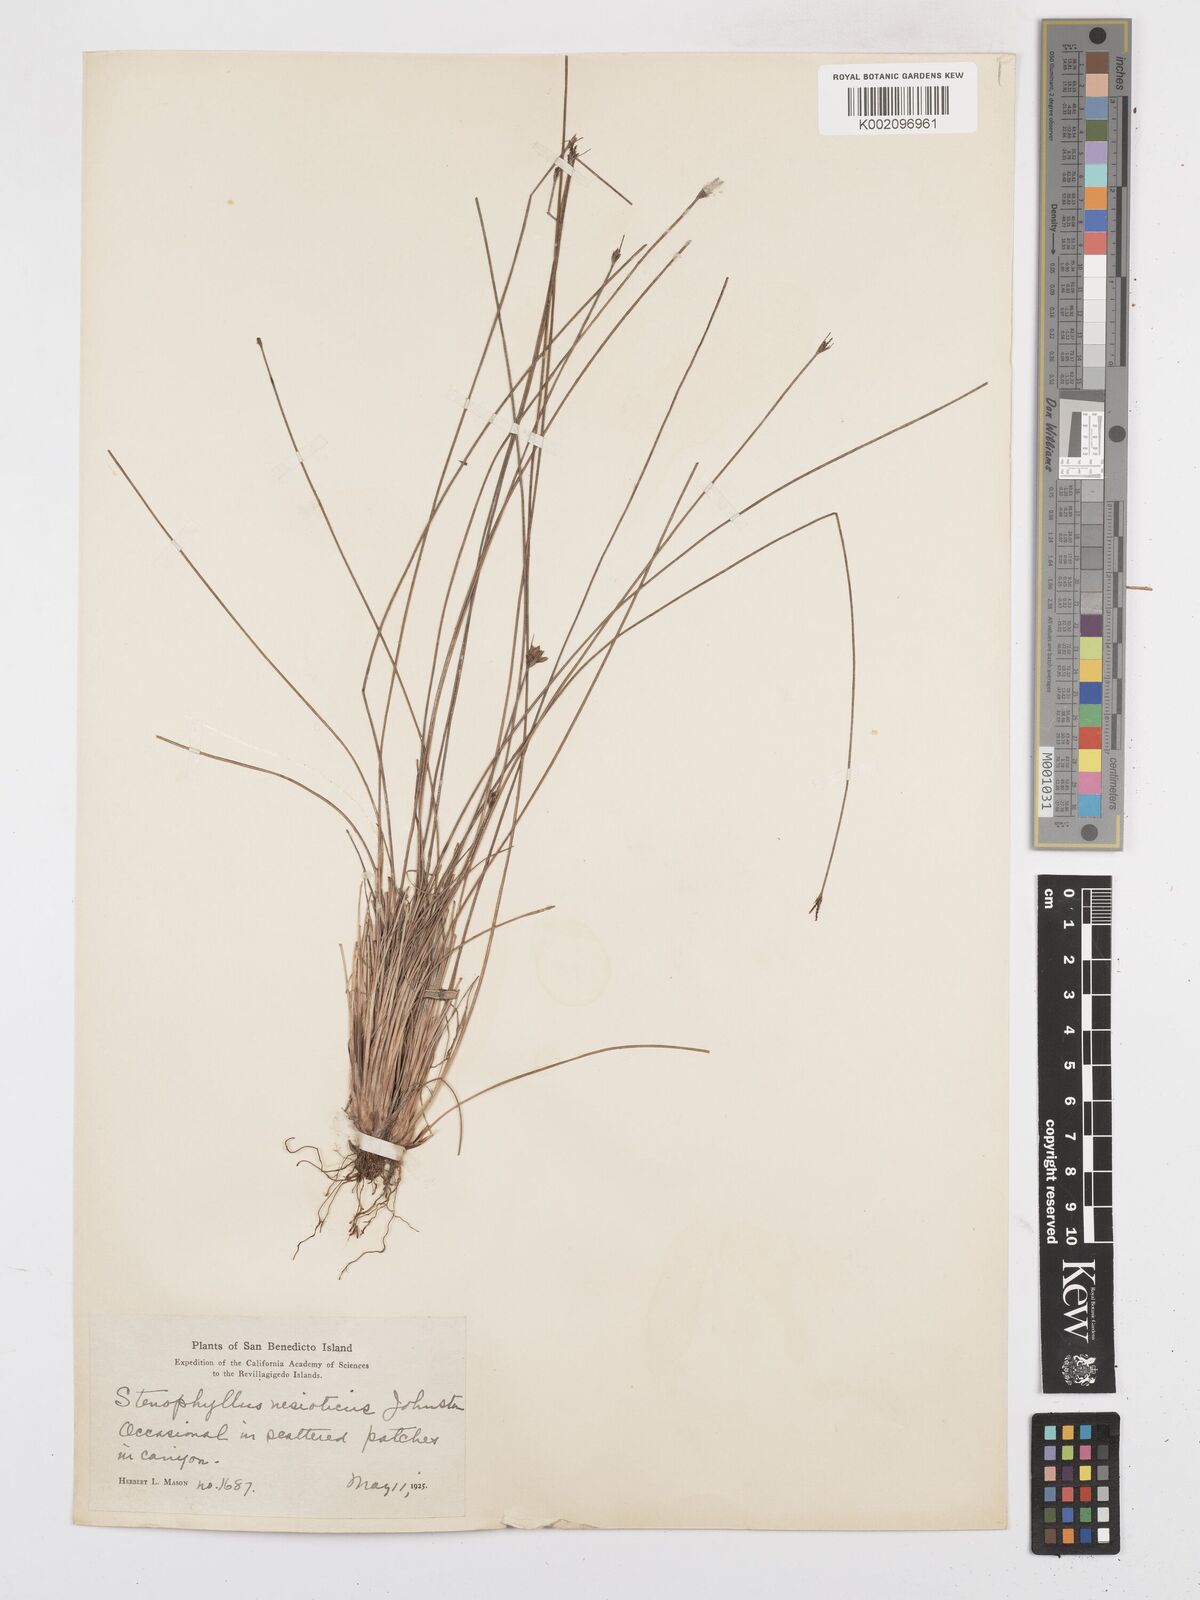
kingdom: Plantae
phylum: Tracheophyta
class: Liliopsida
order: Poales
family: Cyperaceae
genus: Bulbostylis
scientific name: Bulbostylis nesiotica
